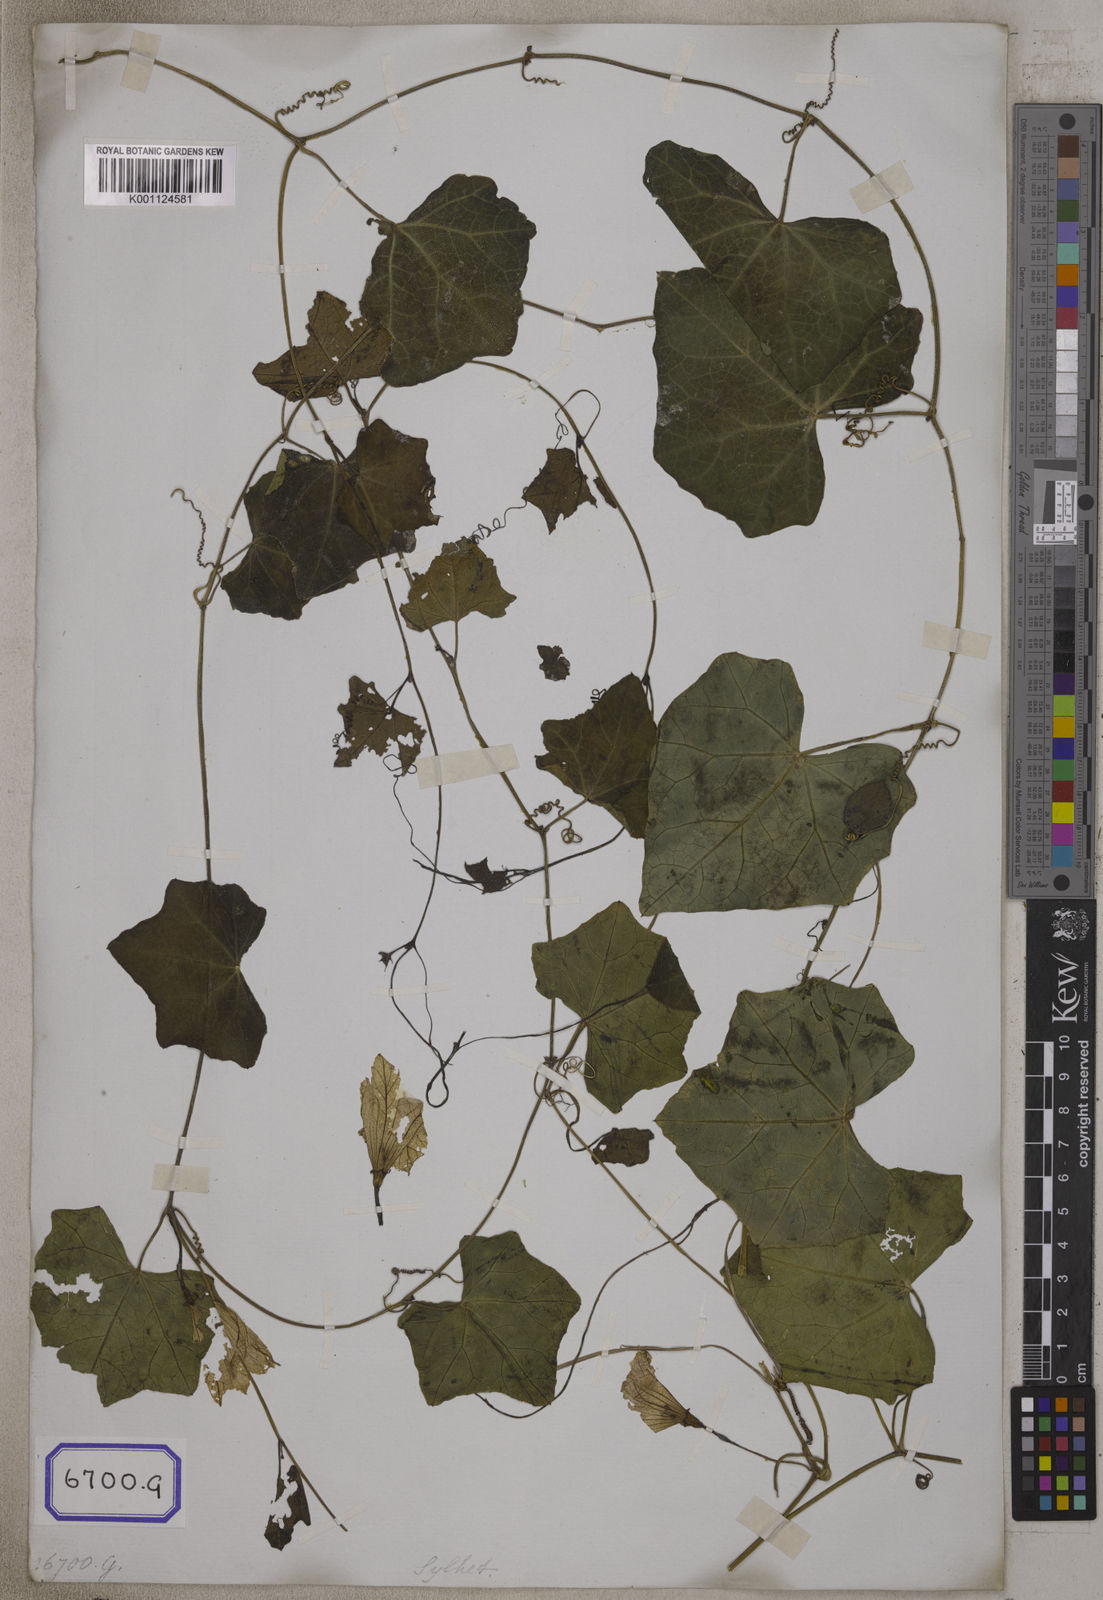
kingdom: Plantae
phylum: Tracheophyta
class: Magnoliopsida
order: Cucurbitales
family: Cucurbitaceae
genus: Bryonia
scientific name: Bryonia
